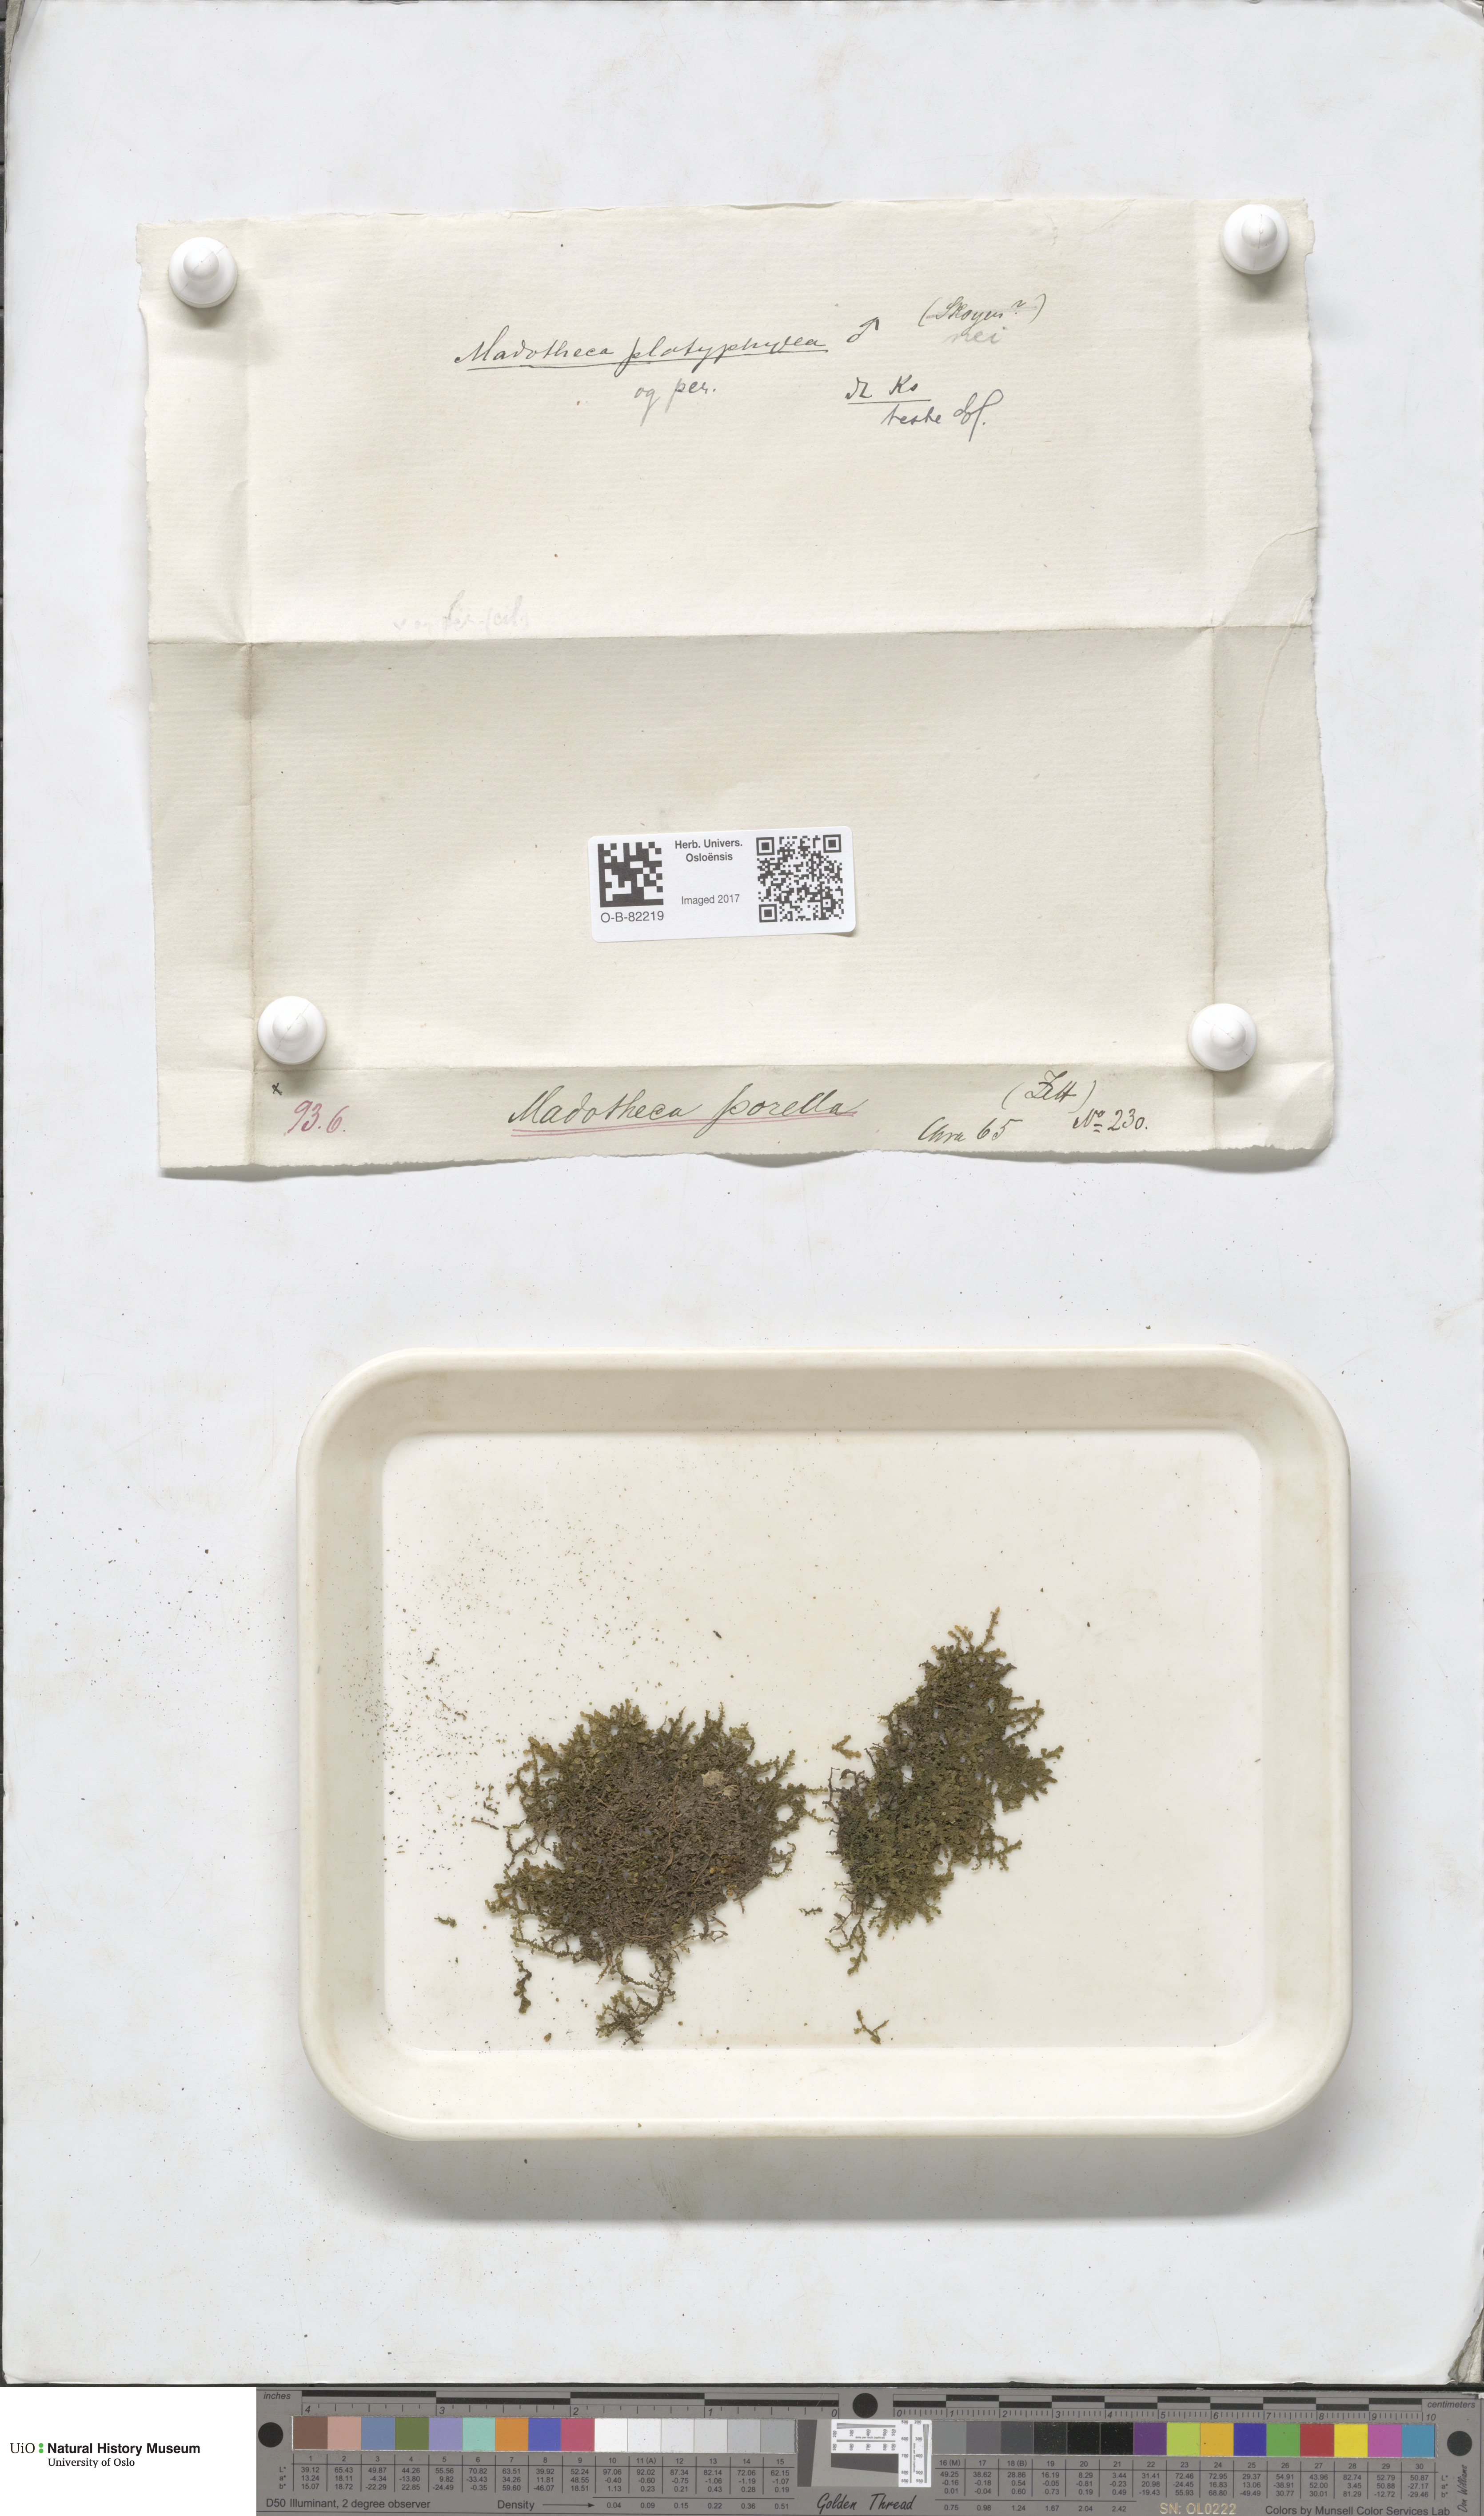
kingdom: Plantae
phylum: Marchantiophyta
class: Jungermanniopsida
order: Porellales
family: Porellaceae
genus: Porella
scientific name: Porella platyphylla
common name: Wall scalewort
